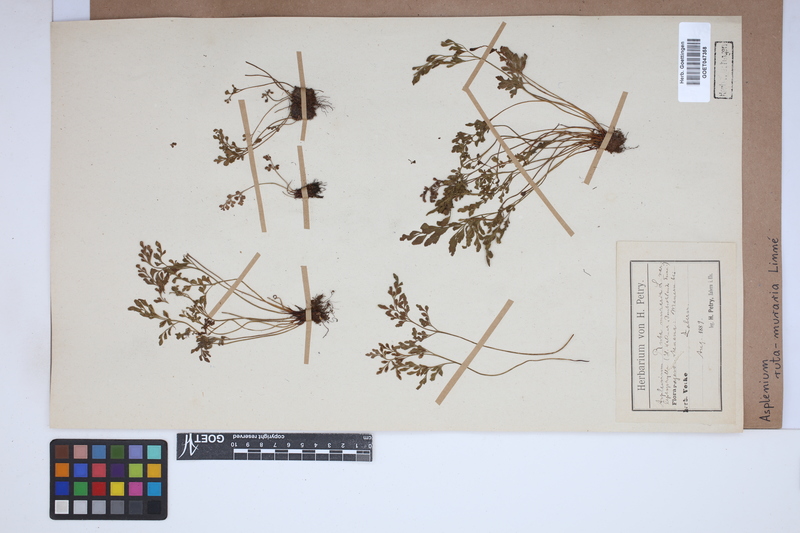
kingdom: Plantae
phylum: Tracheophyta
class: Polypodiopsida
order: Polypodiales
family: Aspleniaceae
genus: Asplenium
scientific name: Asplenium ruta-muraria
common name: Wall-rue
